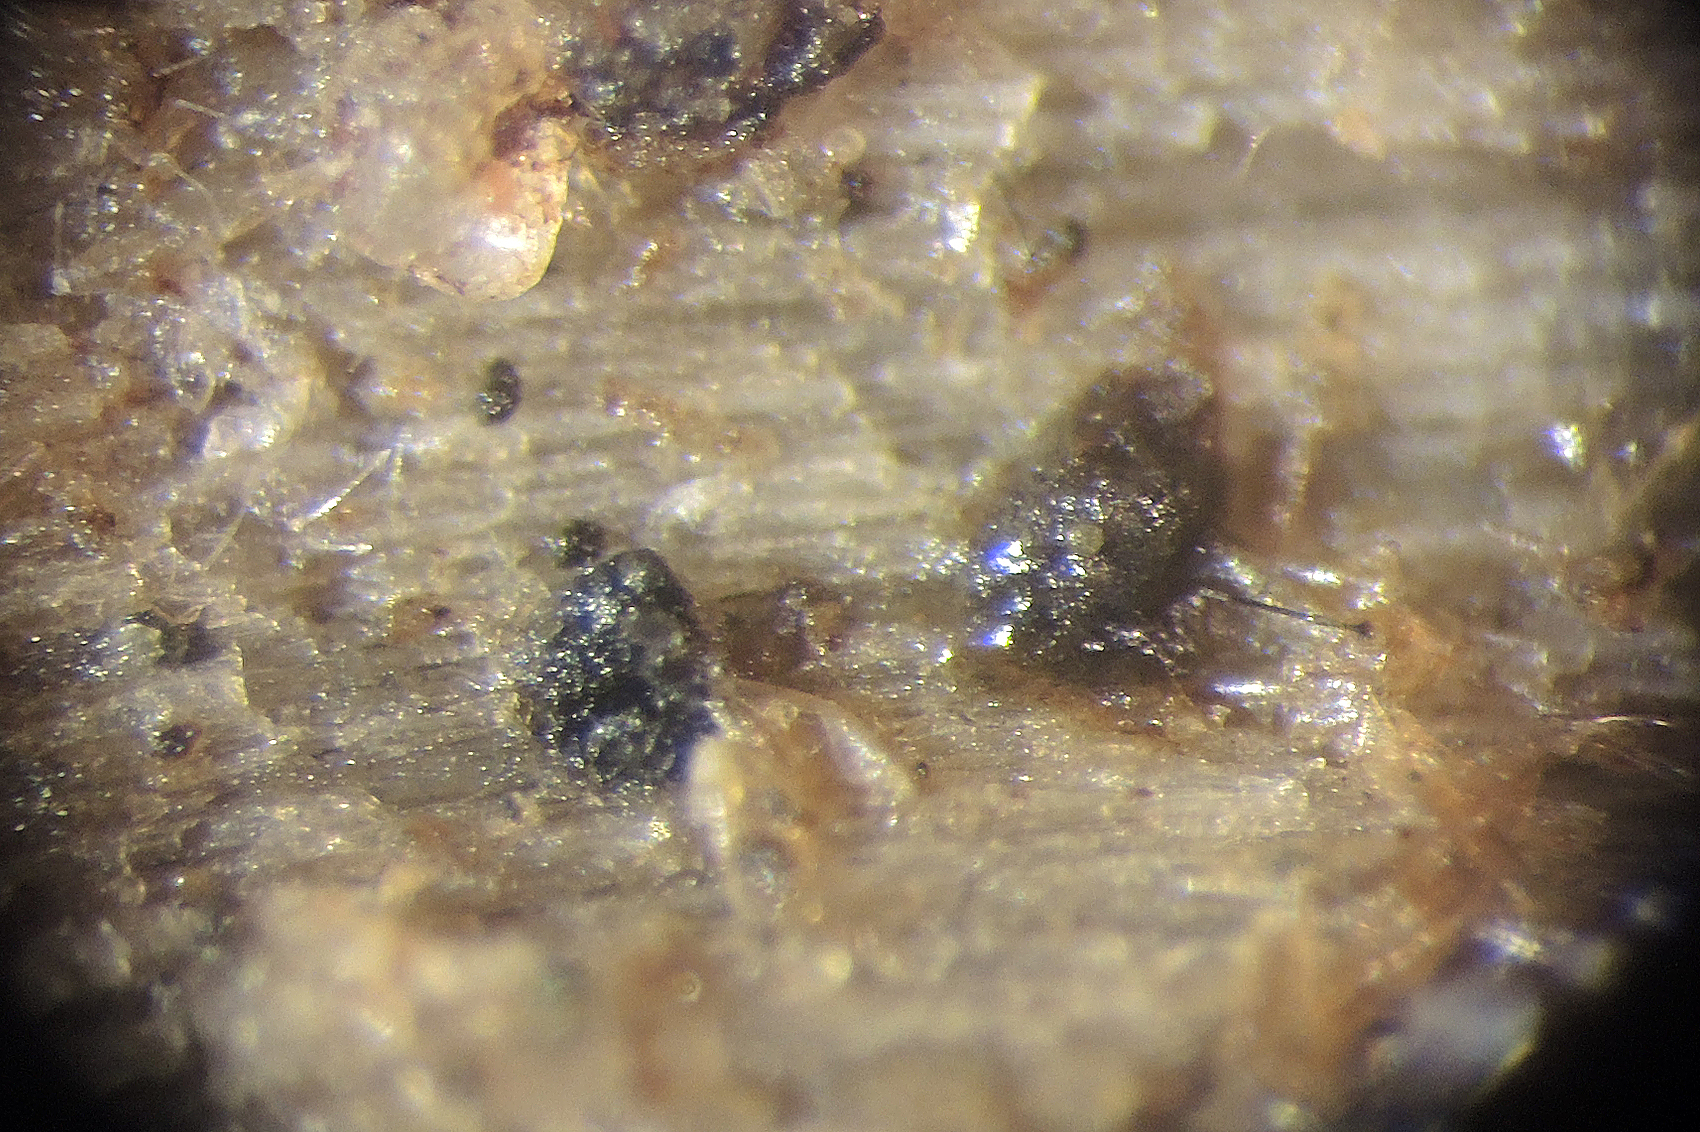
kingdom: Fungi
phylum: Ascomycota
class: Sordariomycetes
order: Boliniales
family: Boliniaceae
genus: Ceratostomella
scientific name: Ceratostomella
